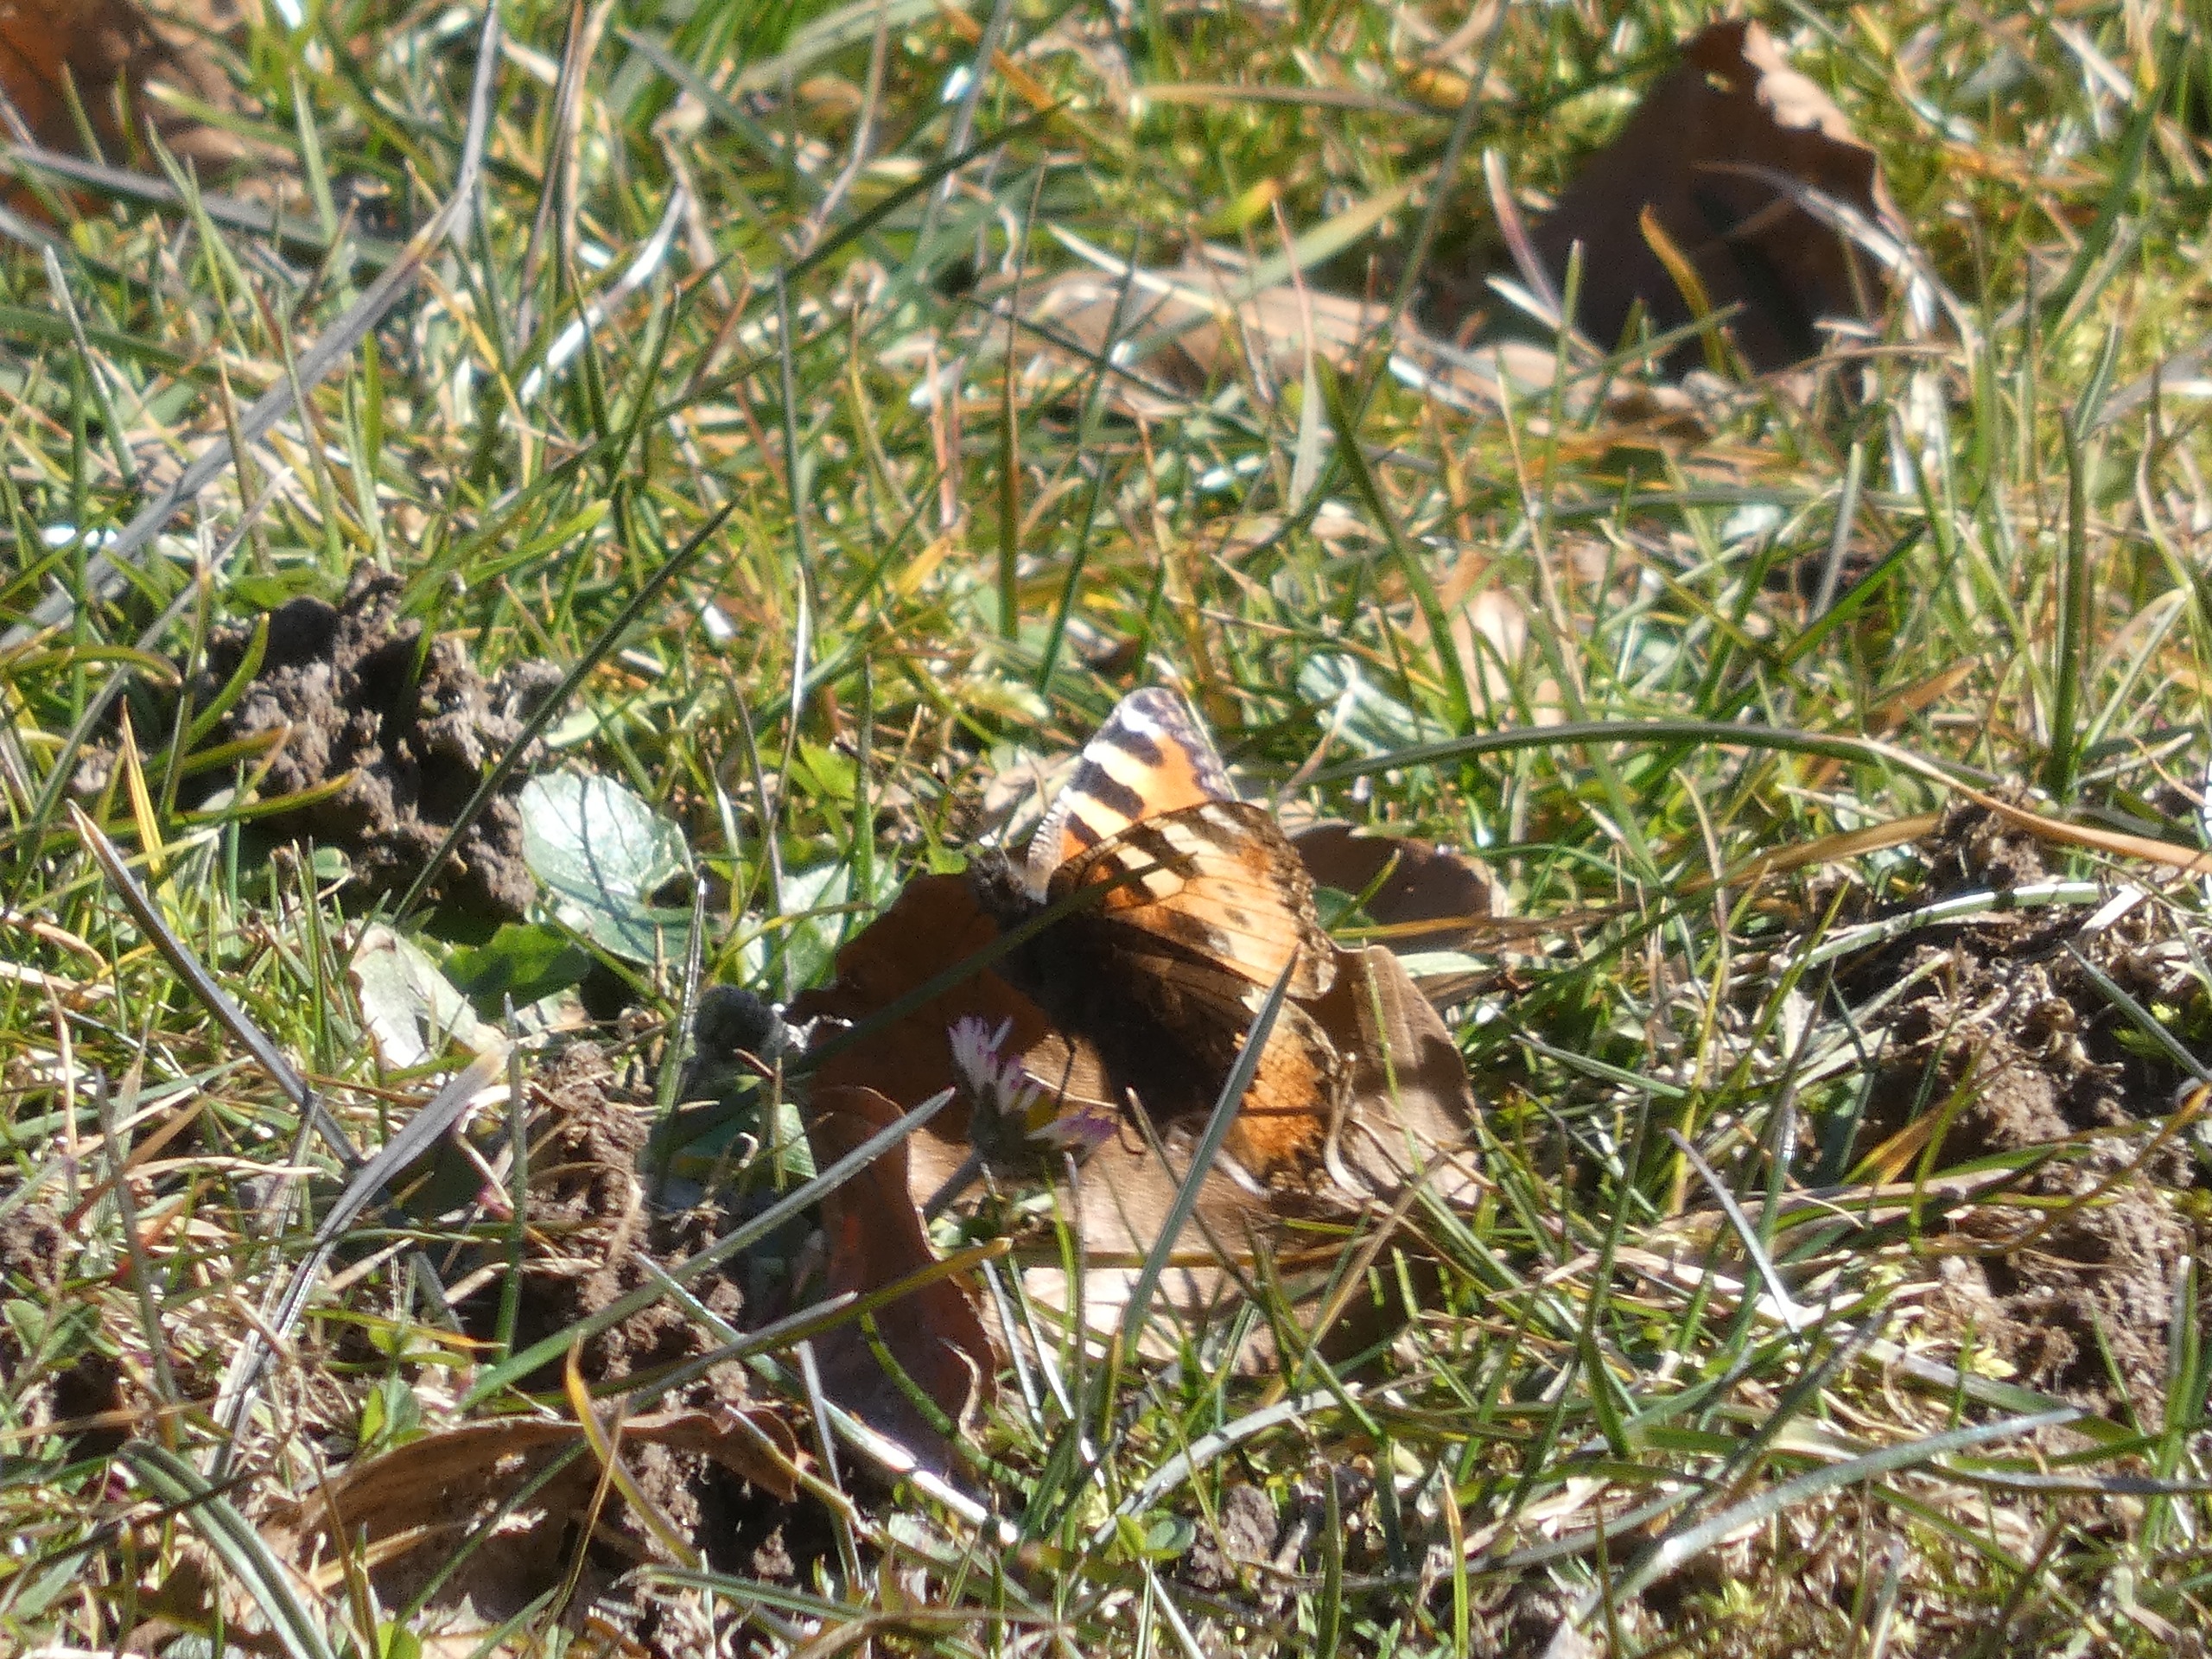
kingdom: Animalia
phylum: Arthropoda
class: Insecta
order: Lepidoptera
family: Nymphalidae
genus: Aglais
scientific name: Aglais urticae
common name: Nældens takvinge
